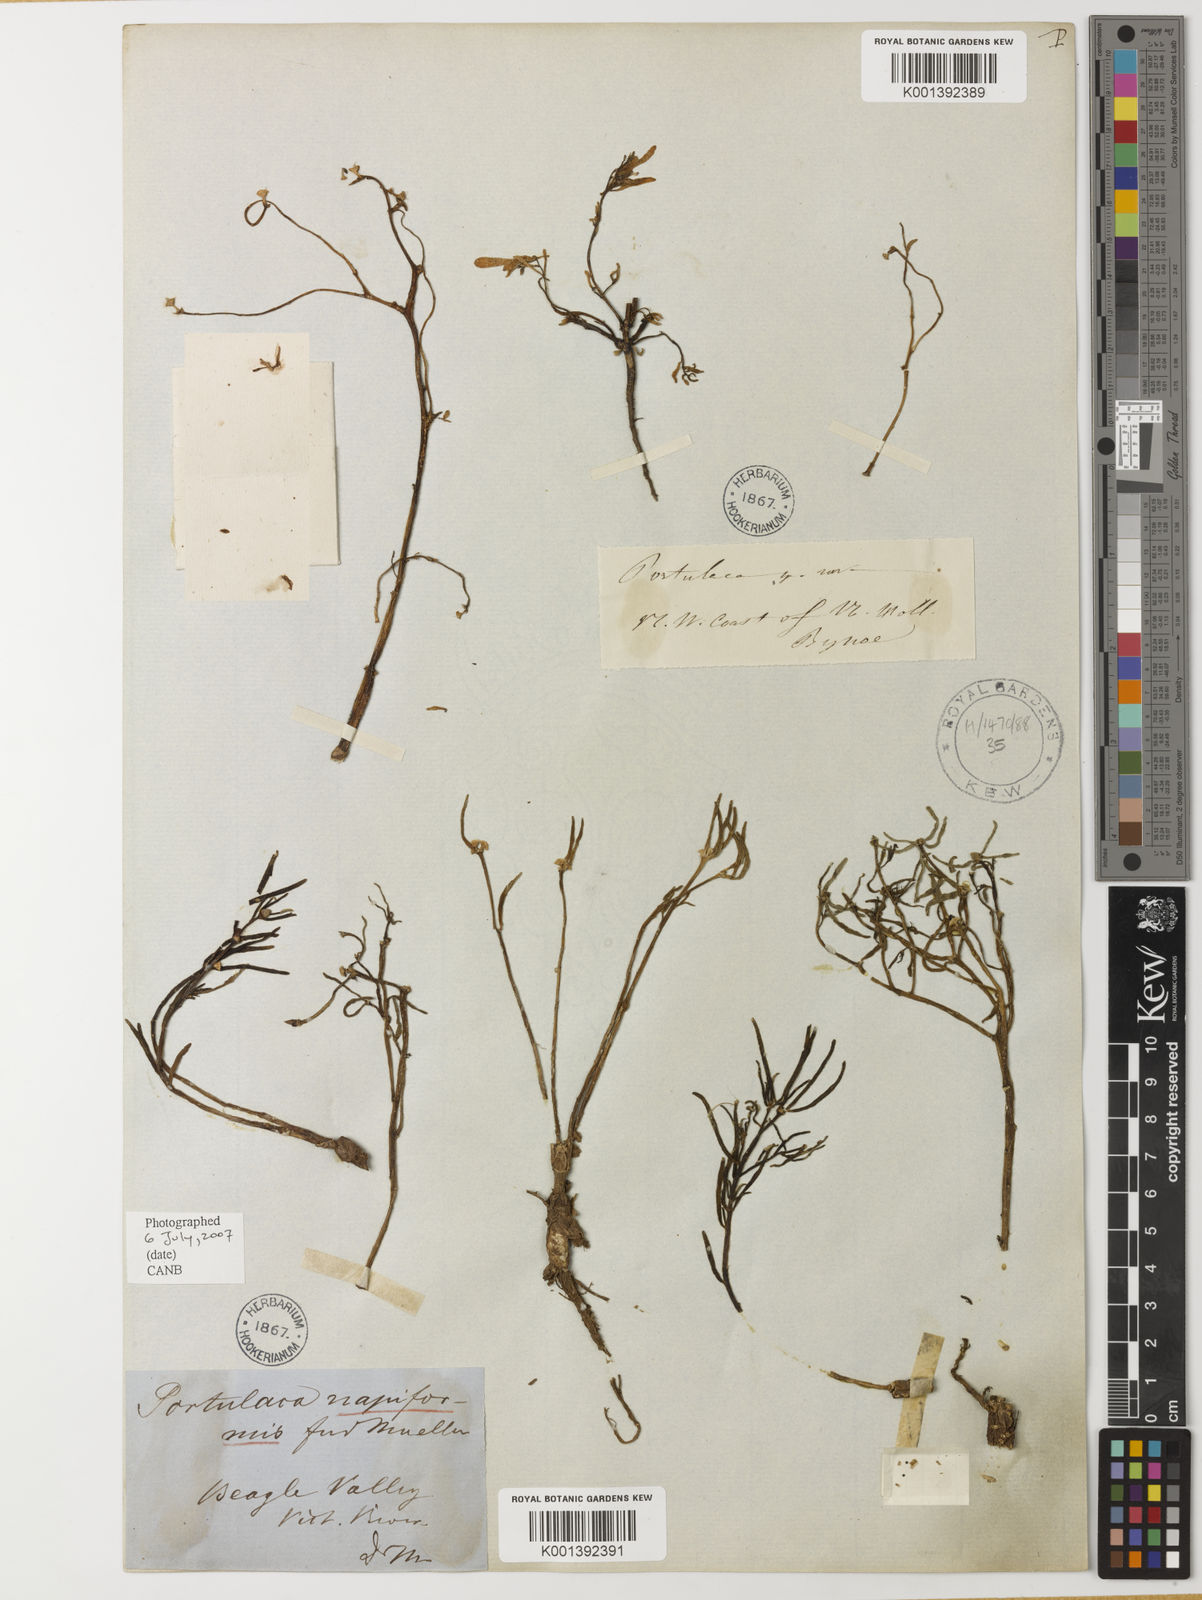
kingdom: Plantae
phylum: Tracheophyta
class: Magnoliopsida
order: Caryophyllales
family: Portulacaceae
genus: Portulaca
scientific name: Portulaca
